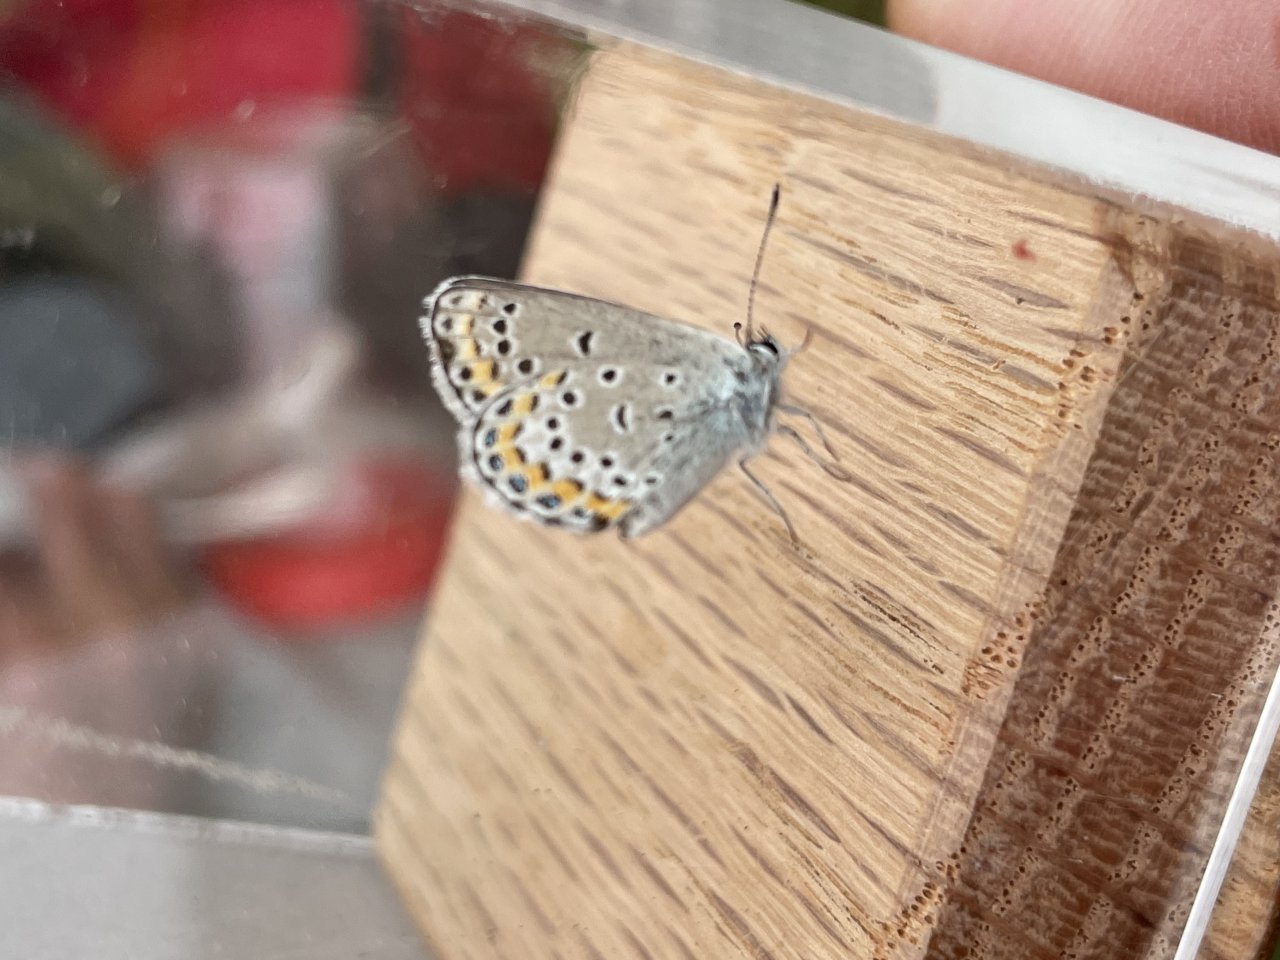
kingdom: Animalia
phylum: Arthropoda
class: Insecta
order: Lepidoptera
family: Lycaenidae
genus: Lycaeides
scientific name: Lycaeides melissa
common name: Melissa Blue
